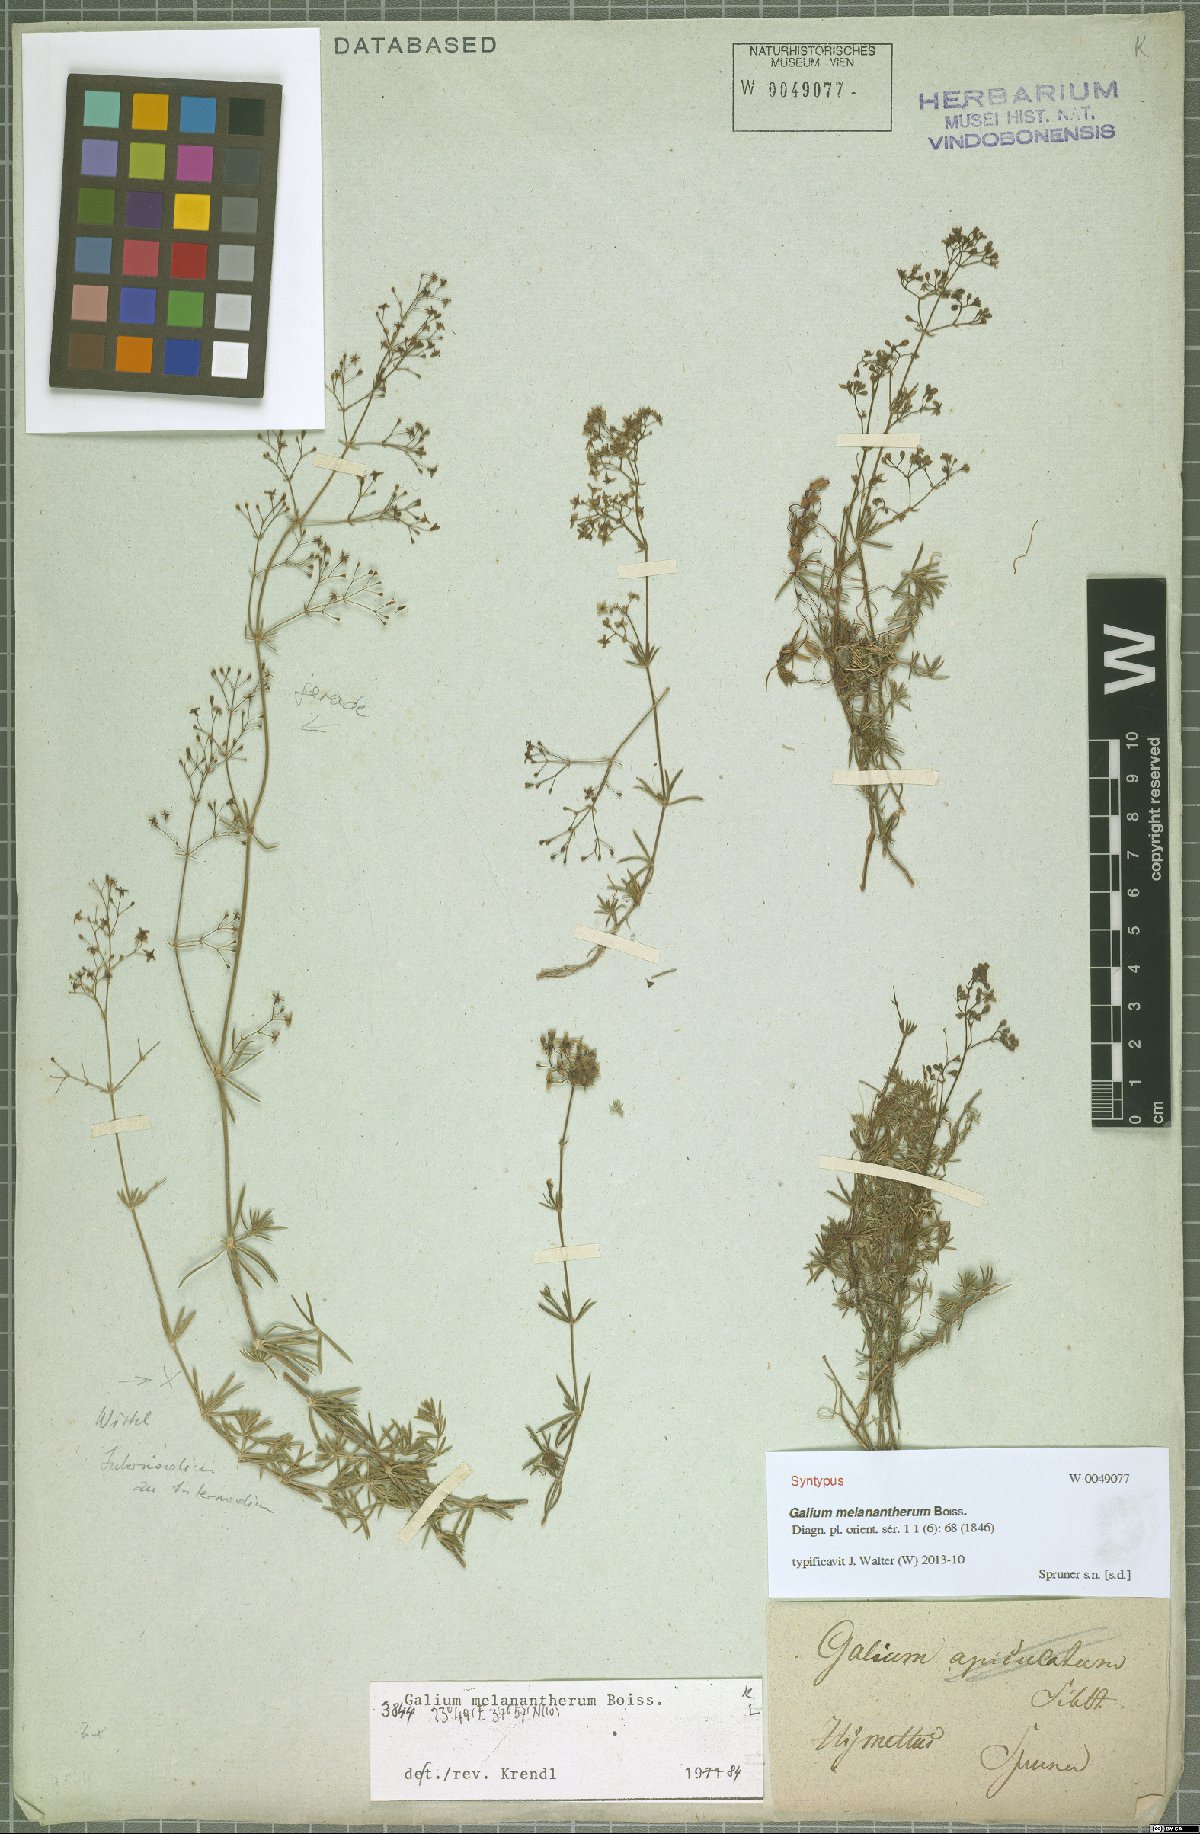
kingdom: Plantae
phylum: Tracheophyta
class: Magnoliopsida
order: Gentianales
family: Rubiaceae
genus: Galium
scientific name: Galium melanantherum
